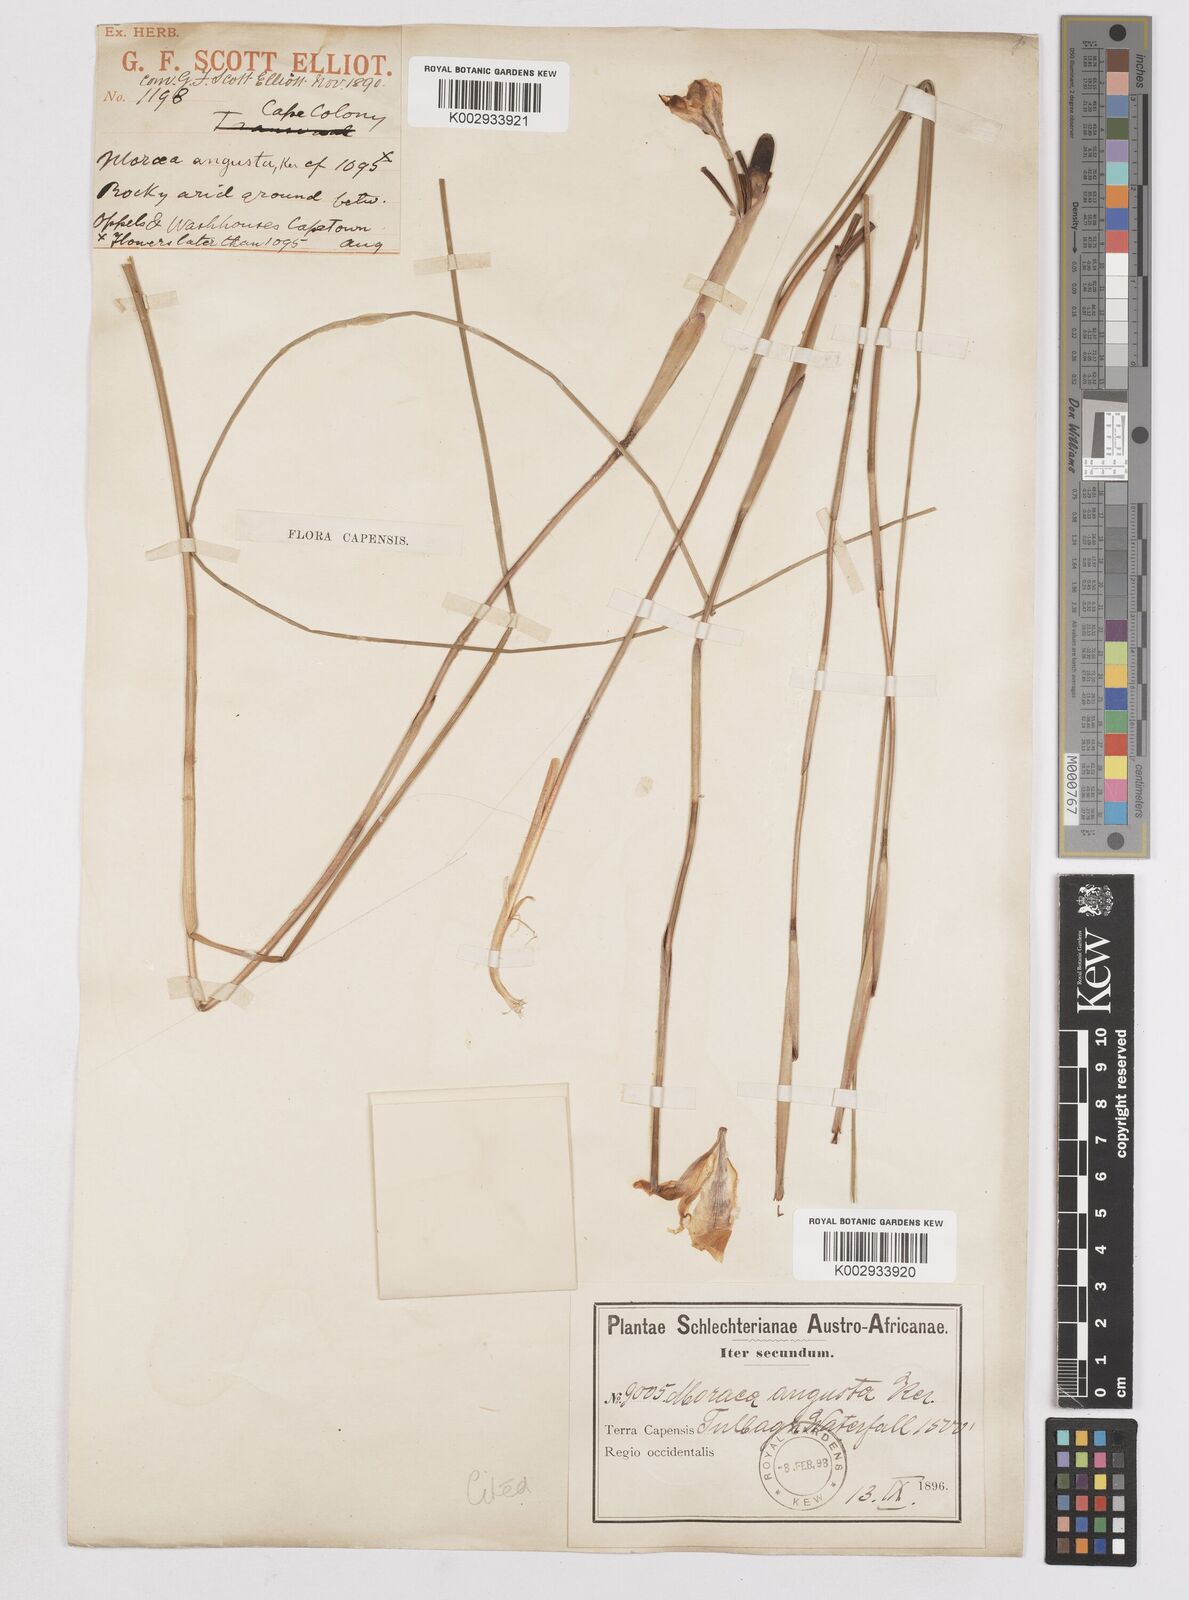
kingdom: Plantae
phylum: Tracheophyta
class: Liliopsida
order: Asparagales
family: Iridaceae
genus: Moraea
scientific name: Moraea angusta
